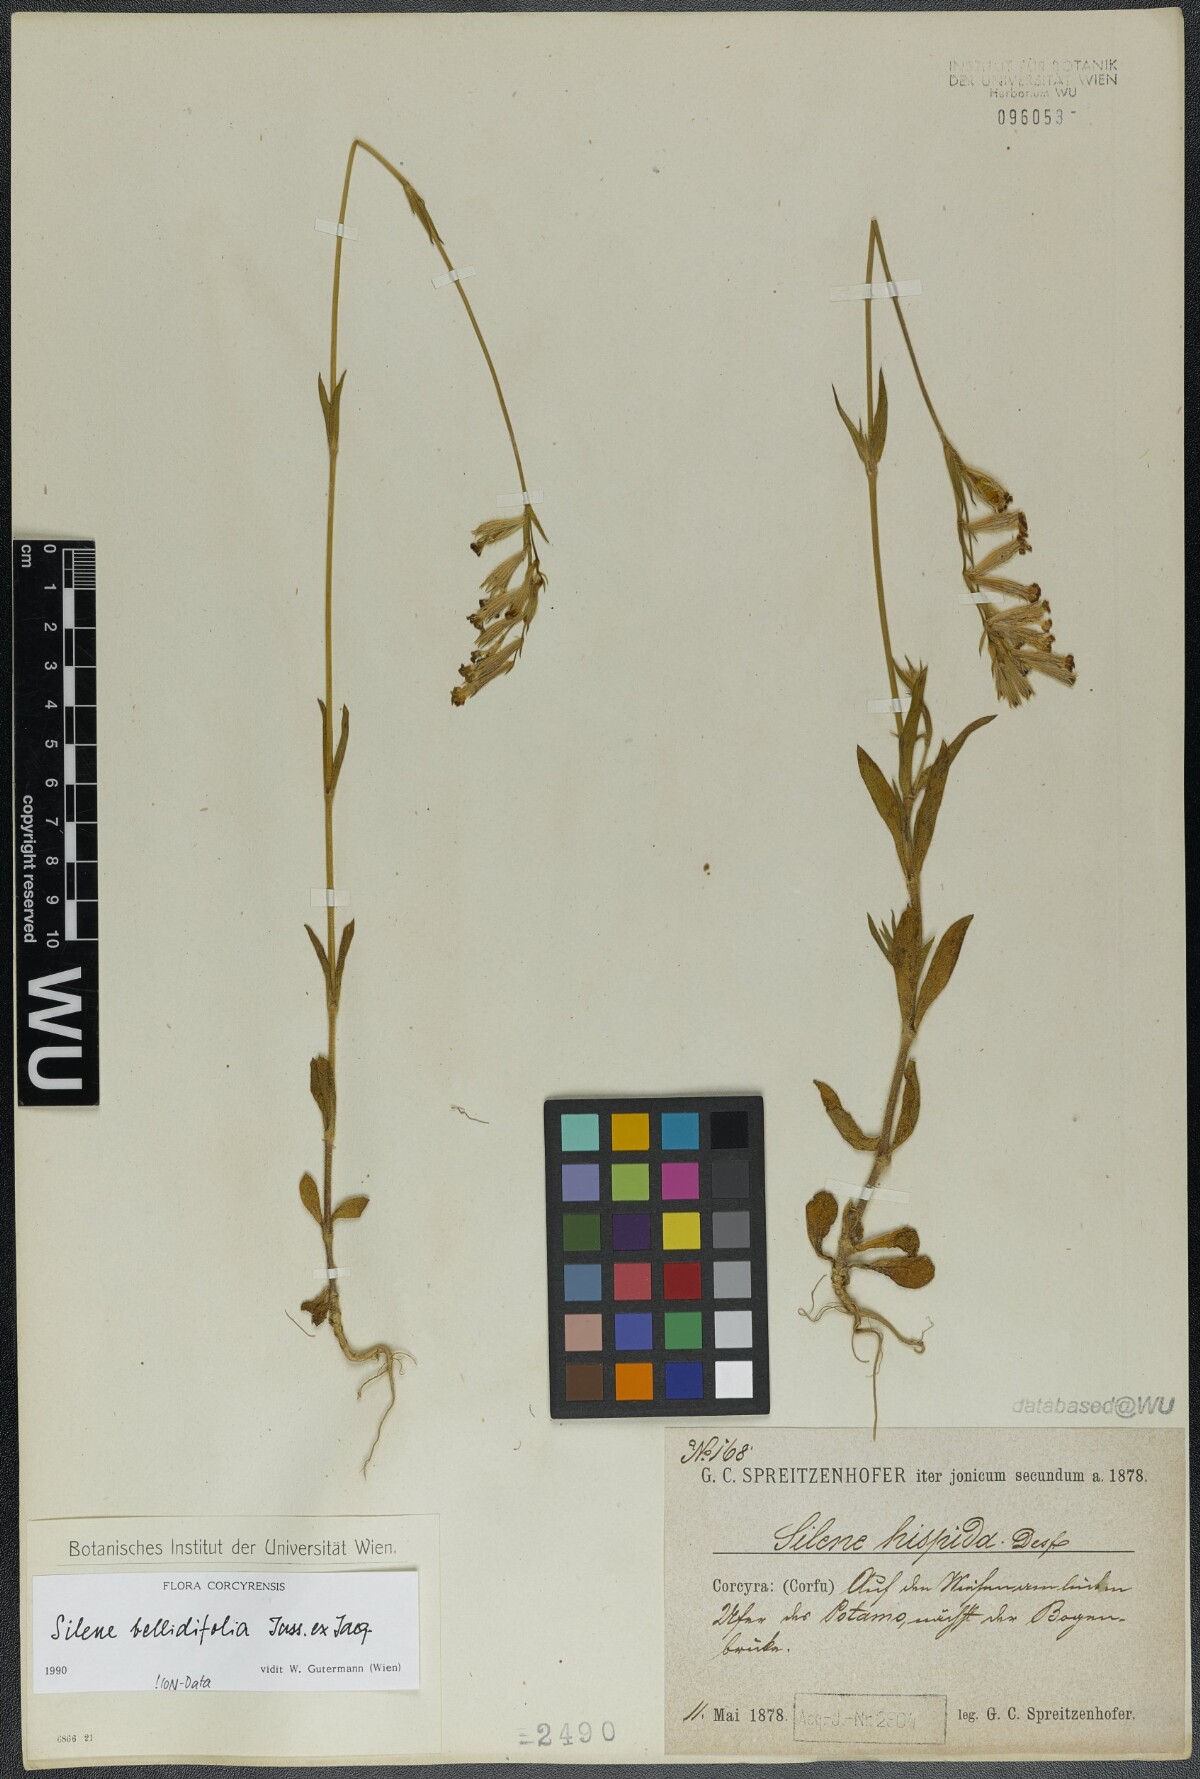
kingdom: Plantae
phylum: Tracheophyta
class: Magnoliopsida
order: Caryophyllales
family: Caryophyllaceae
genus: Silene
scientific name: Silene bellidifolia
